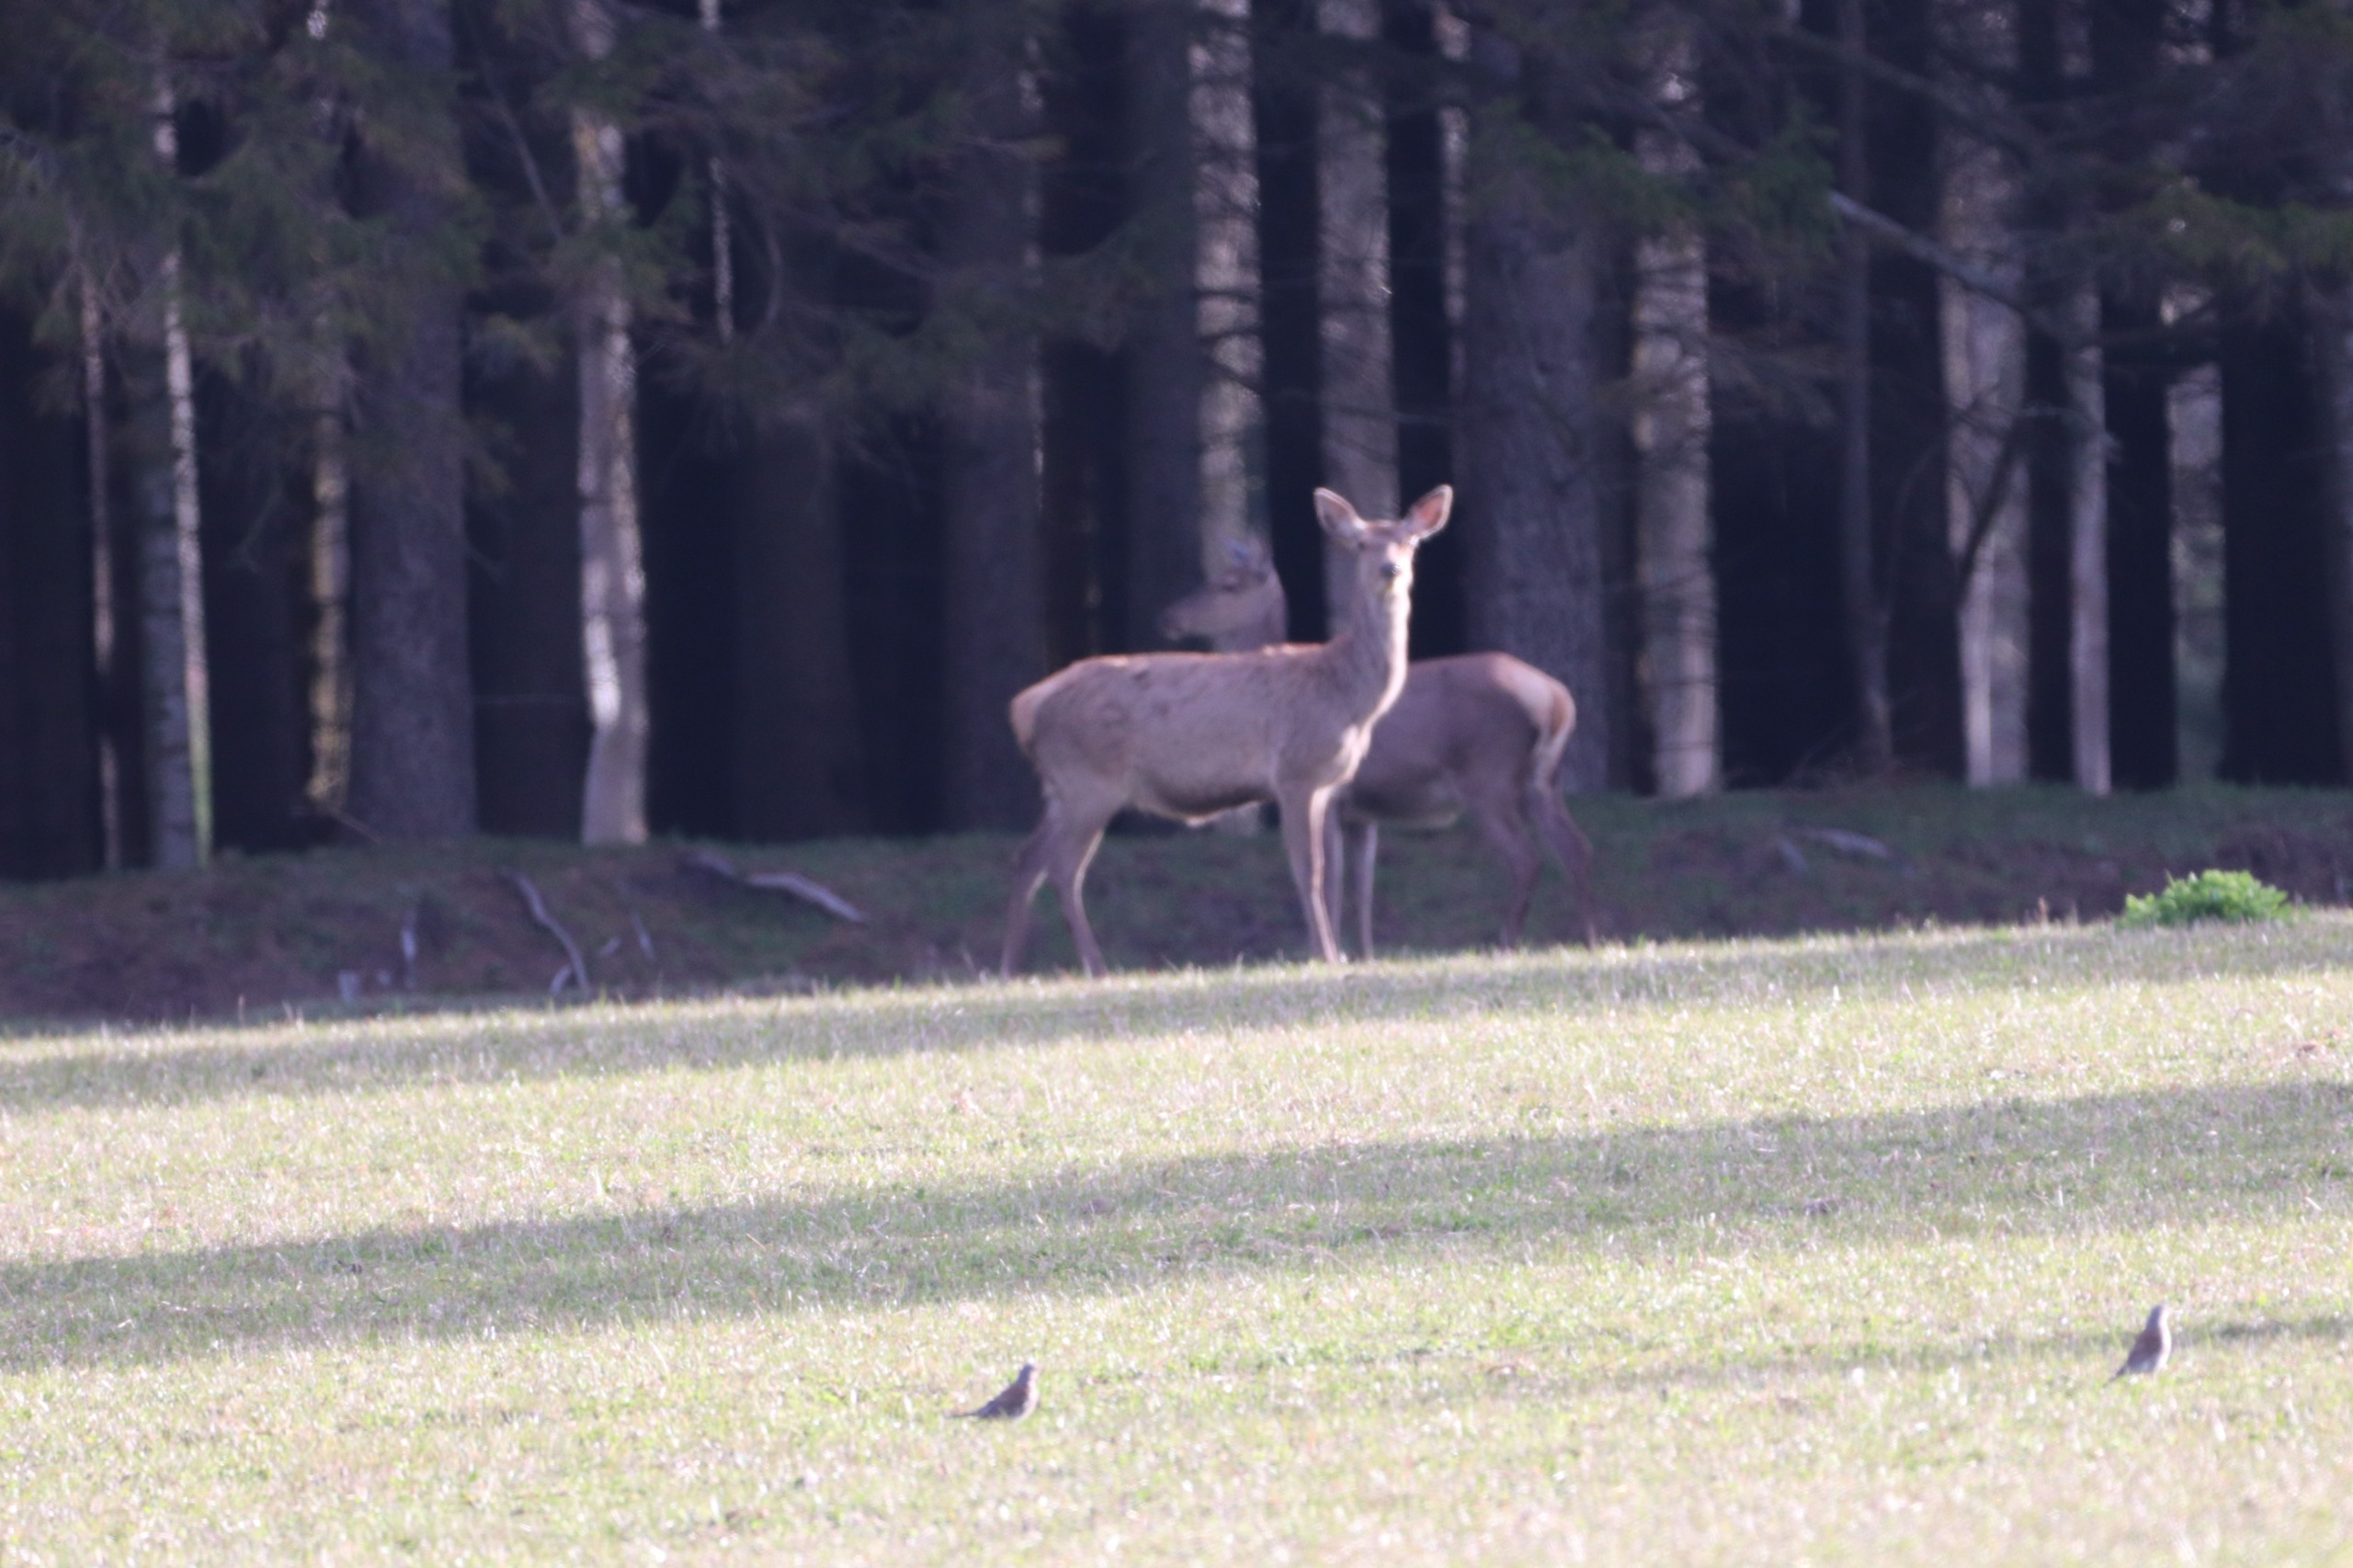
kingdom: Animalia
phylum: Chordata
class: Mammalia
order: Artiodactyla
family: Cervidae
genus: Cervus
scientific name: Cervus elaphus
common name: Krondyr
